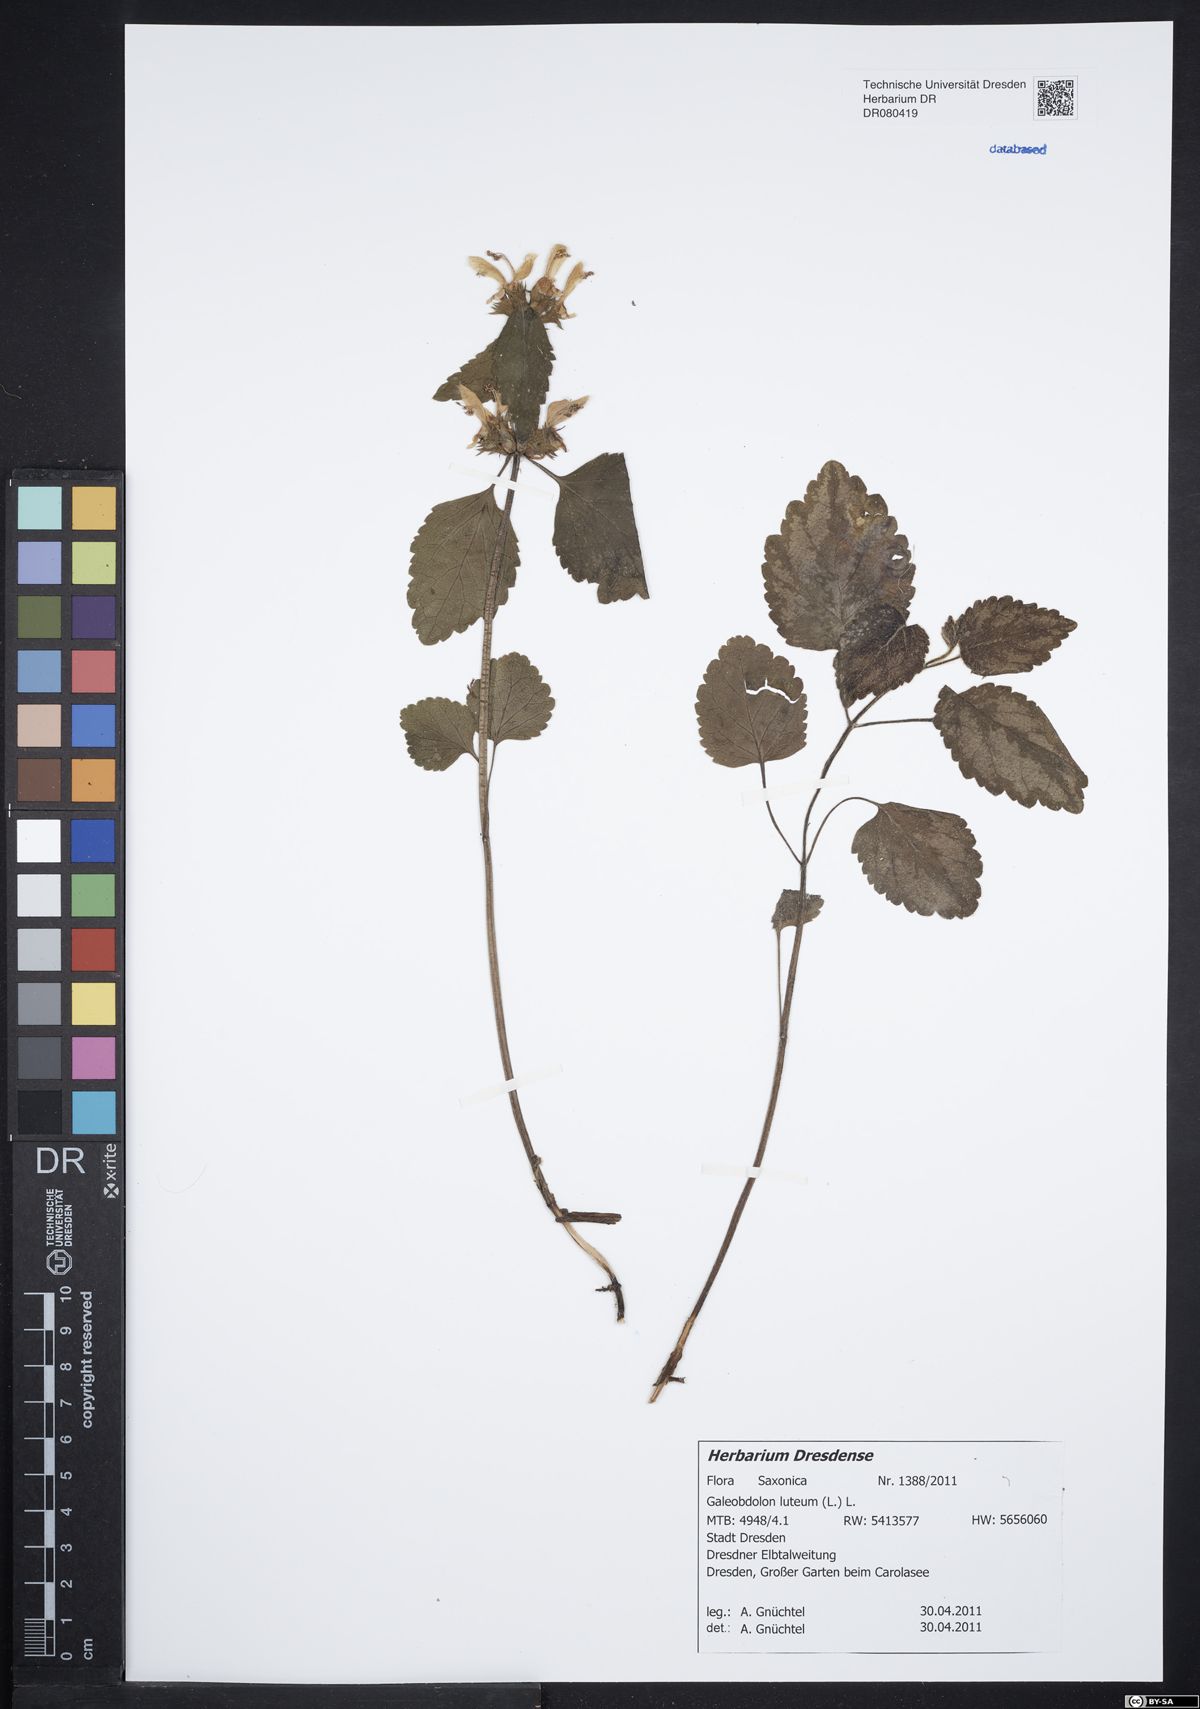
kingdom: Plantae
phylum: Tracheophyta
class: Magnoliopsida
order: Lamiales
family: Lamiaceae
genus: Lamium
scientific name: Lamium galeobdolon
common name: Yellow archangel
